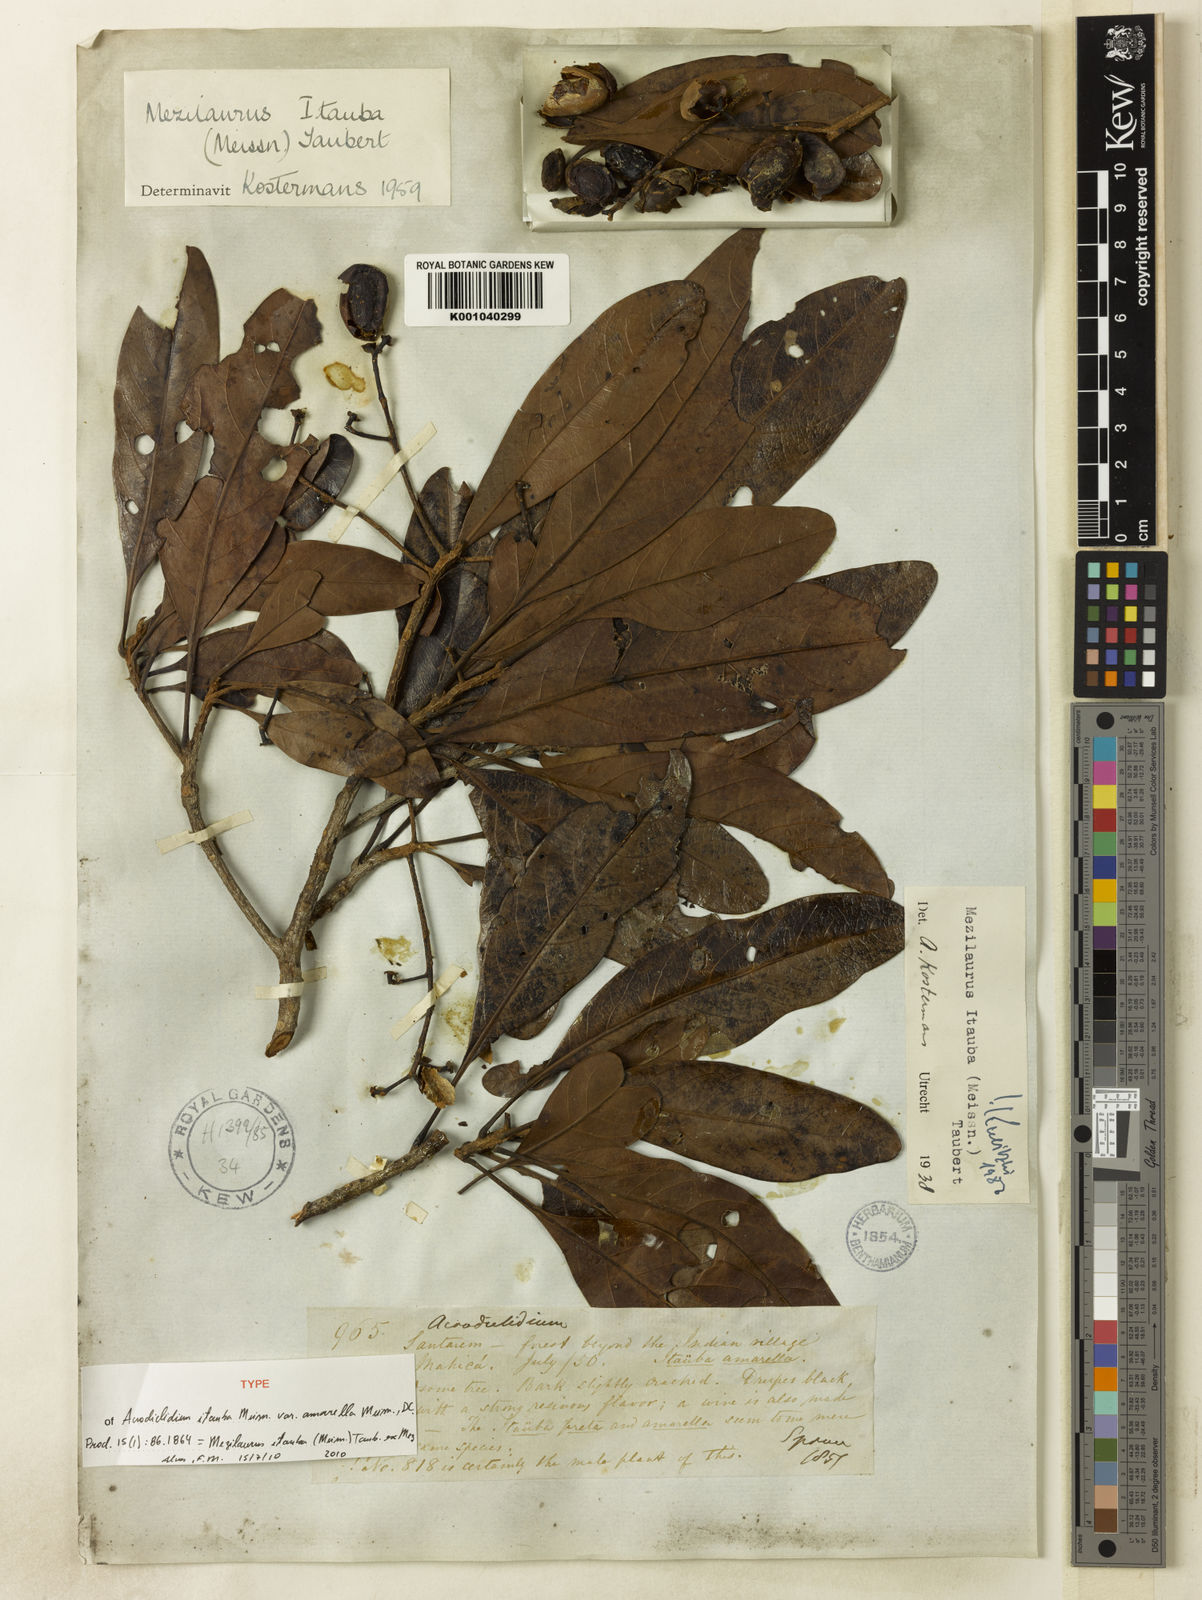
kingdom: Plantae
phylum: Tracheophyta
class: Magnoliopsida
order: Laurales
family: Lauraceae
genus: Mezilaurus
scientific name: Mezilaurus ita-uba
